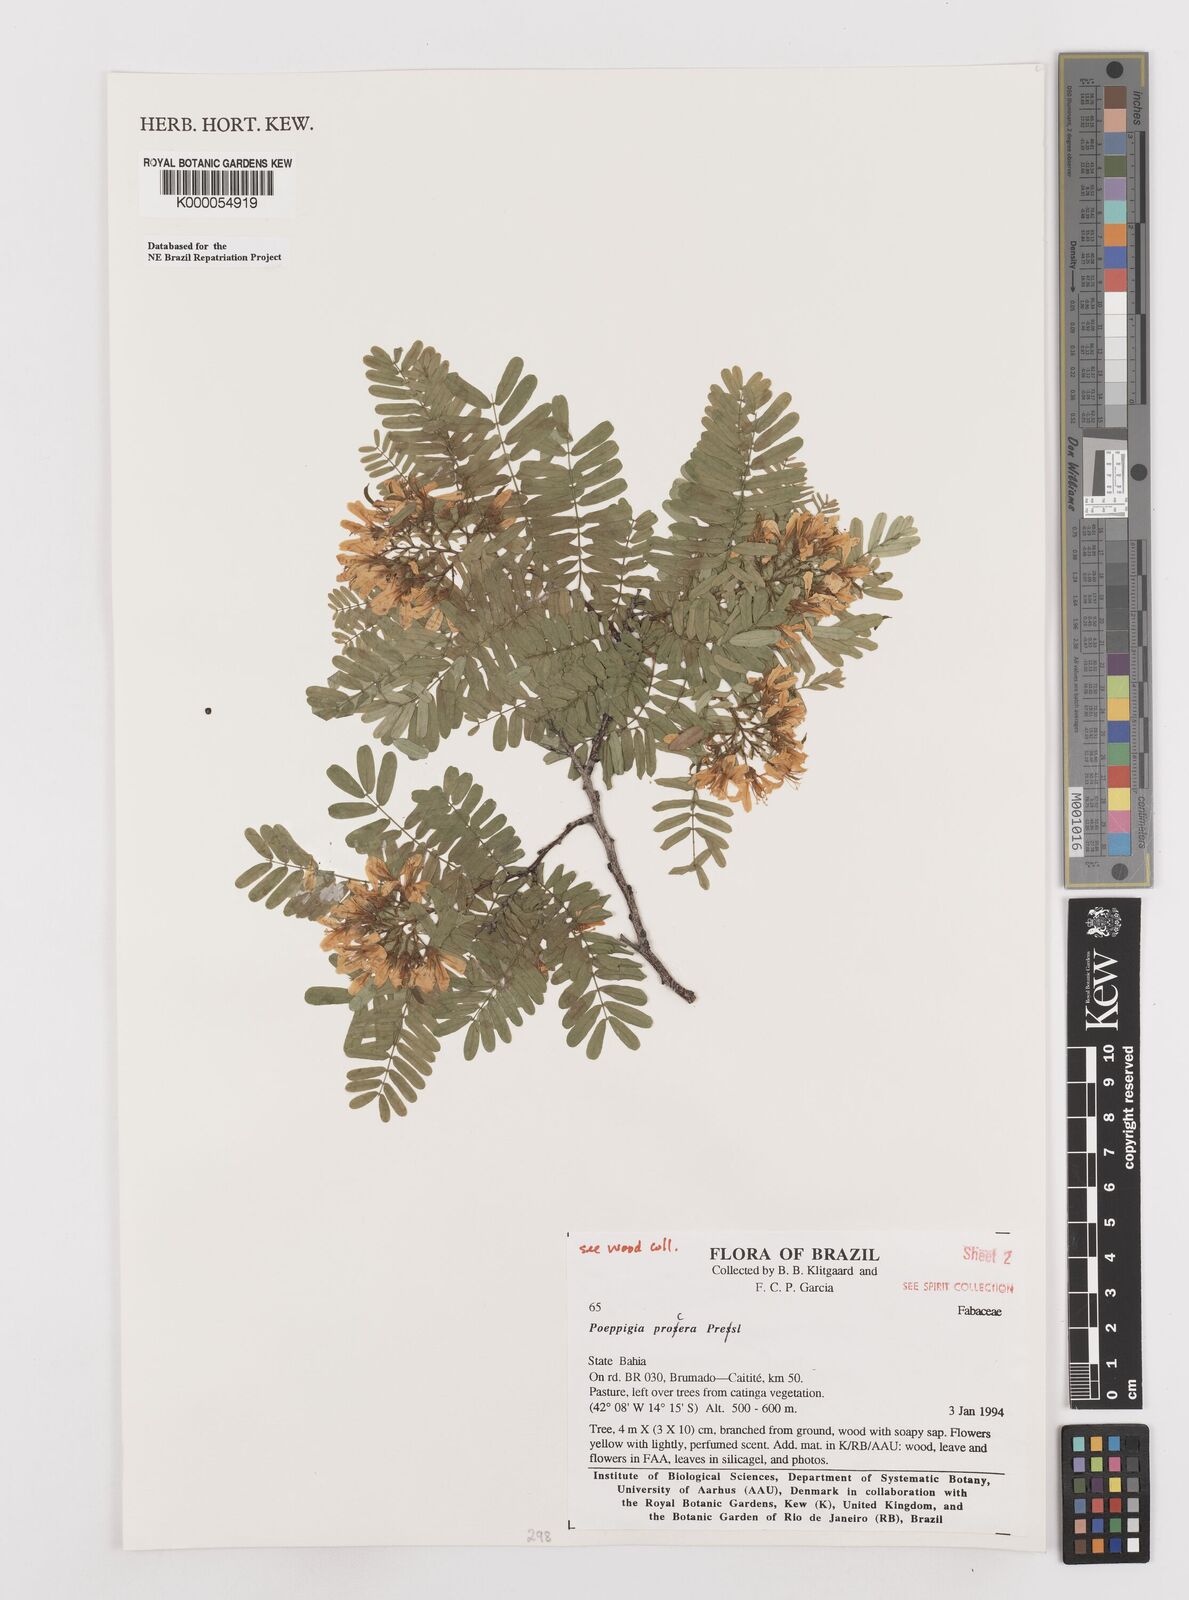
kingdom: Plantae
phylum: Tracheophyta
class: Magnoliopsida
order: Fabales
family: Fabaceae
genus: Poeppigia
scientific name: Poeppigia procera
